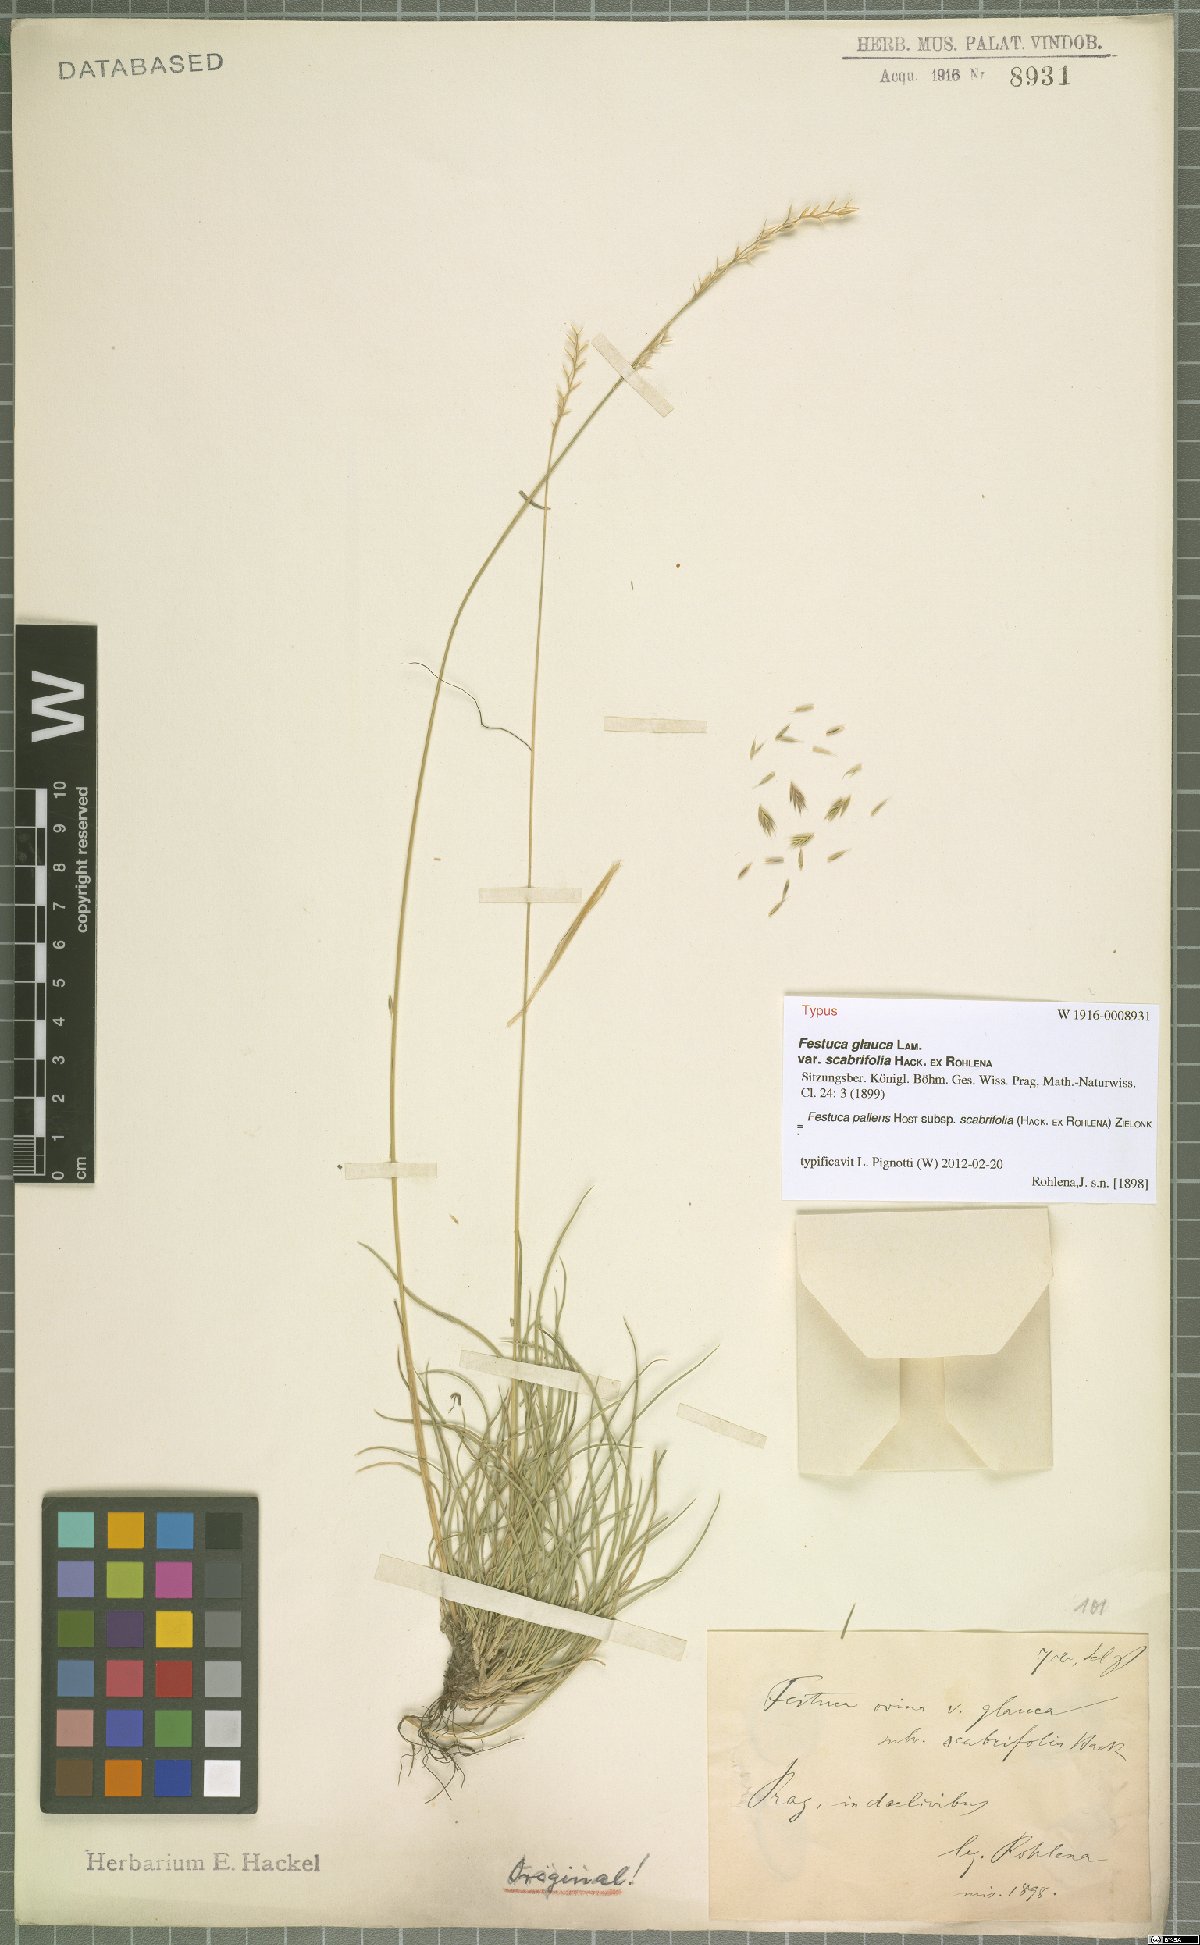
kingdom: Plantae
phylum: Tracheophyta
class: Liliopsida
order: Poales
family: Poaceae
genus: Festuca
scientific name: Festuca ovina
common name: Sheep fescue
